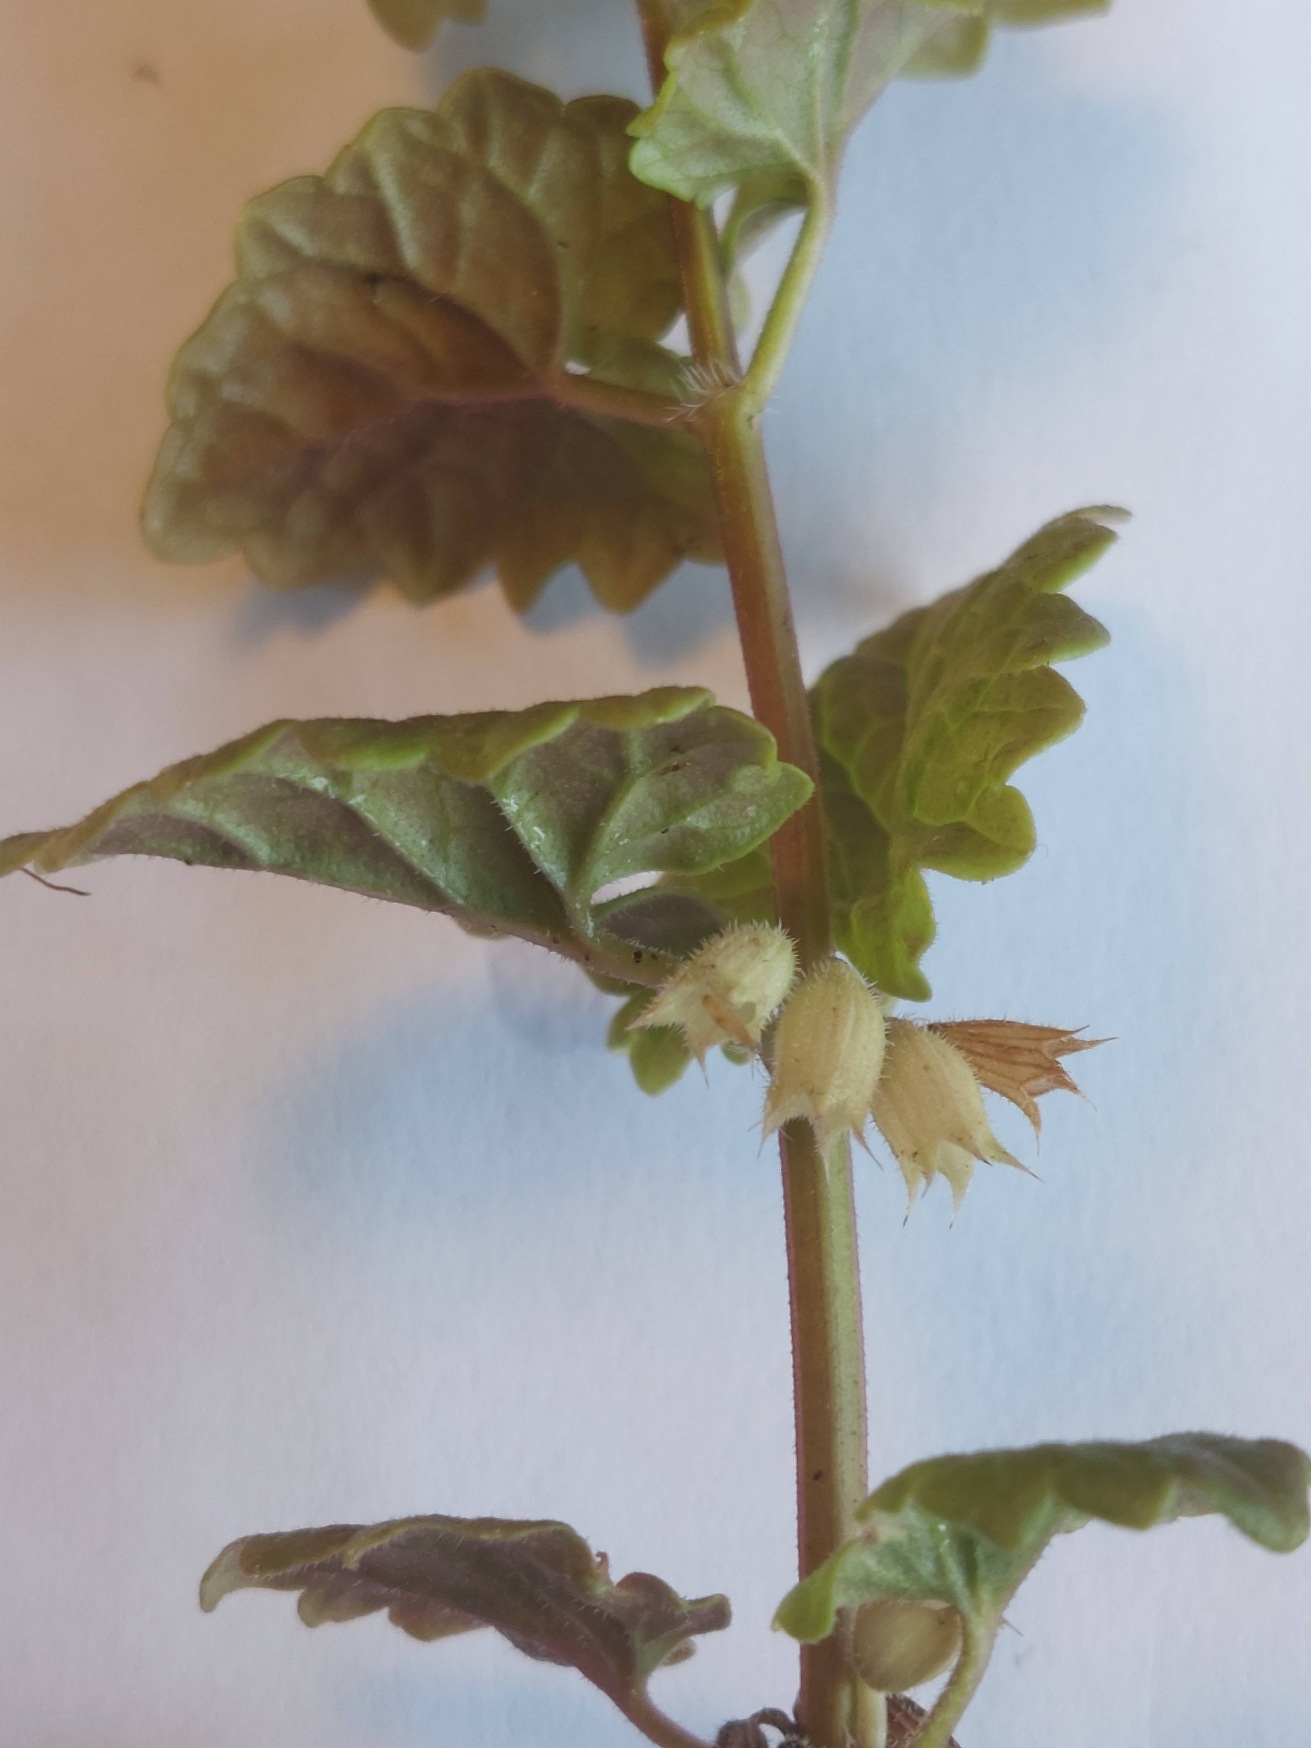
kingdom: Plantae
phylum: Tracheophyta
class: Magnoliopsida
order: Lamiales
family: Lamiaceae
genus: Glechoma
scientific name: Glechoma hederacea
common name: Korsknap
